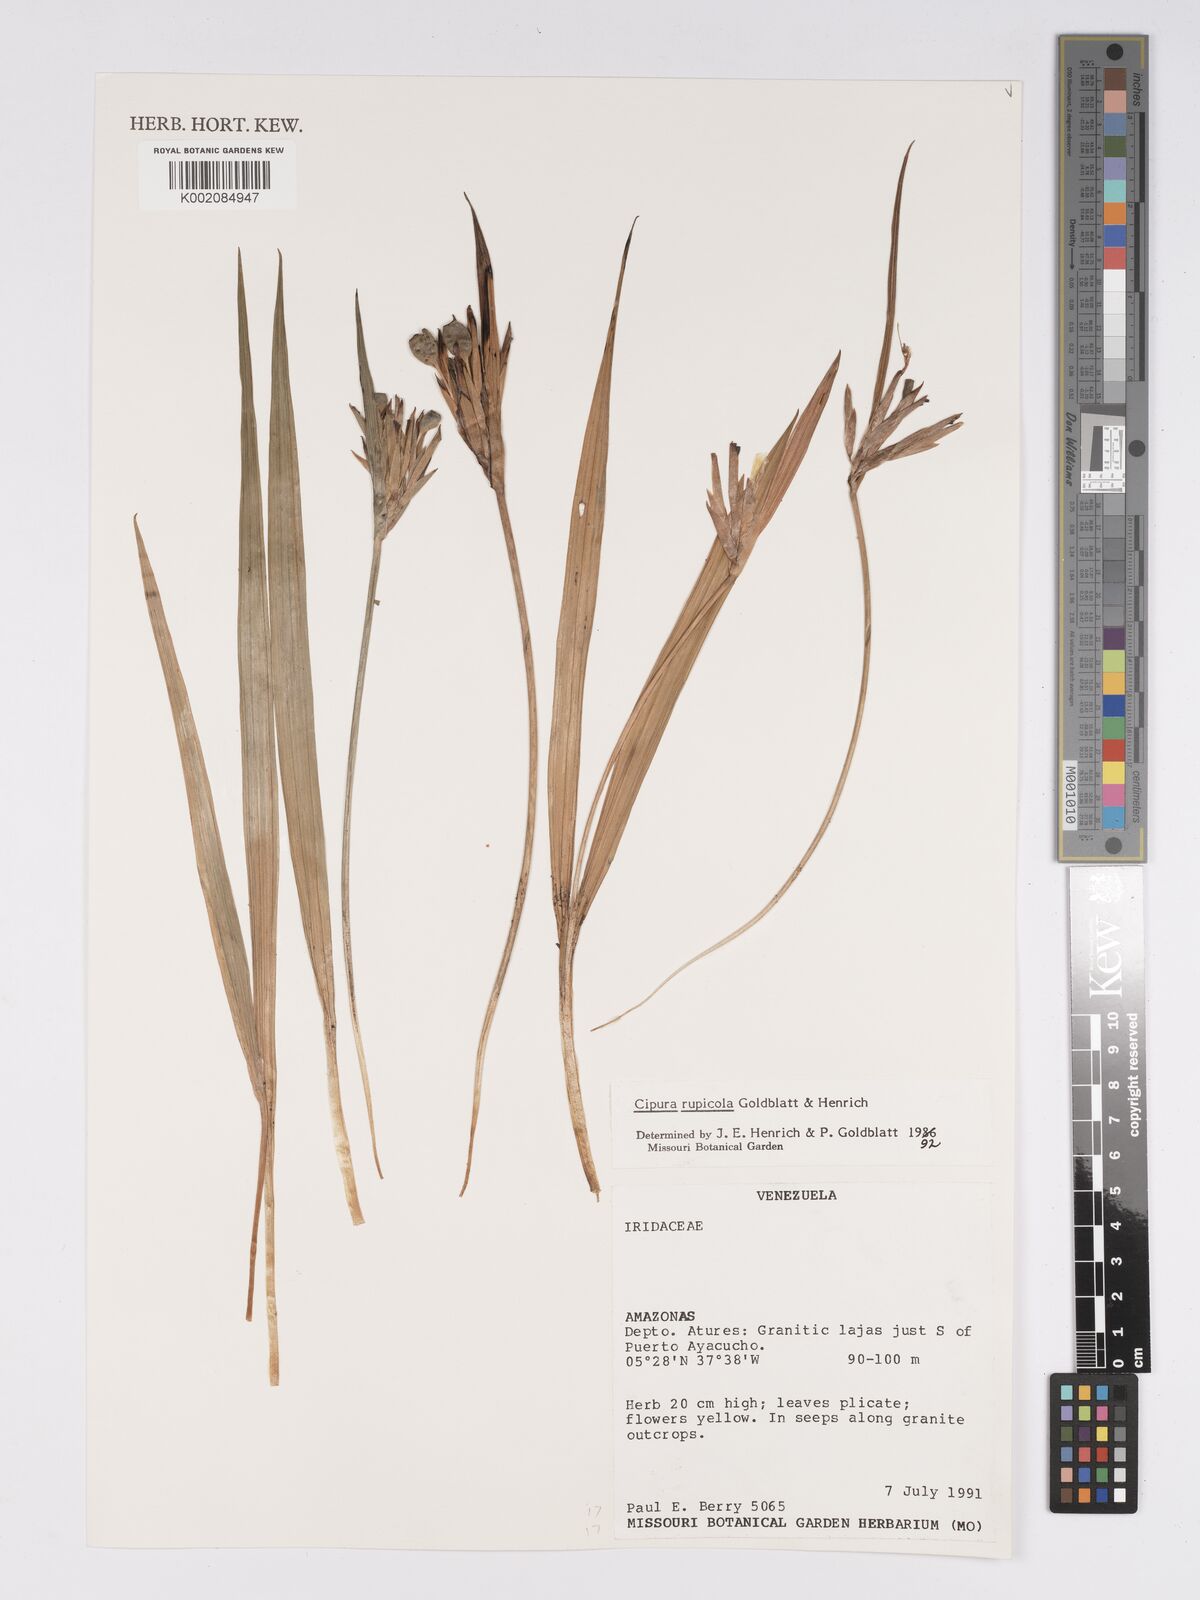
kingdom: Plantae
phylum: Tracheophyta
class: Liliopsida
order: Asparagales
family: Iridaceae
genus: Cipura
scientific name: Cipura rupicola
